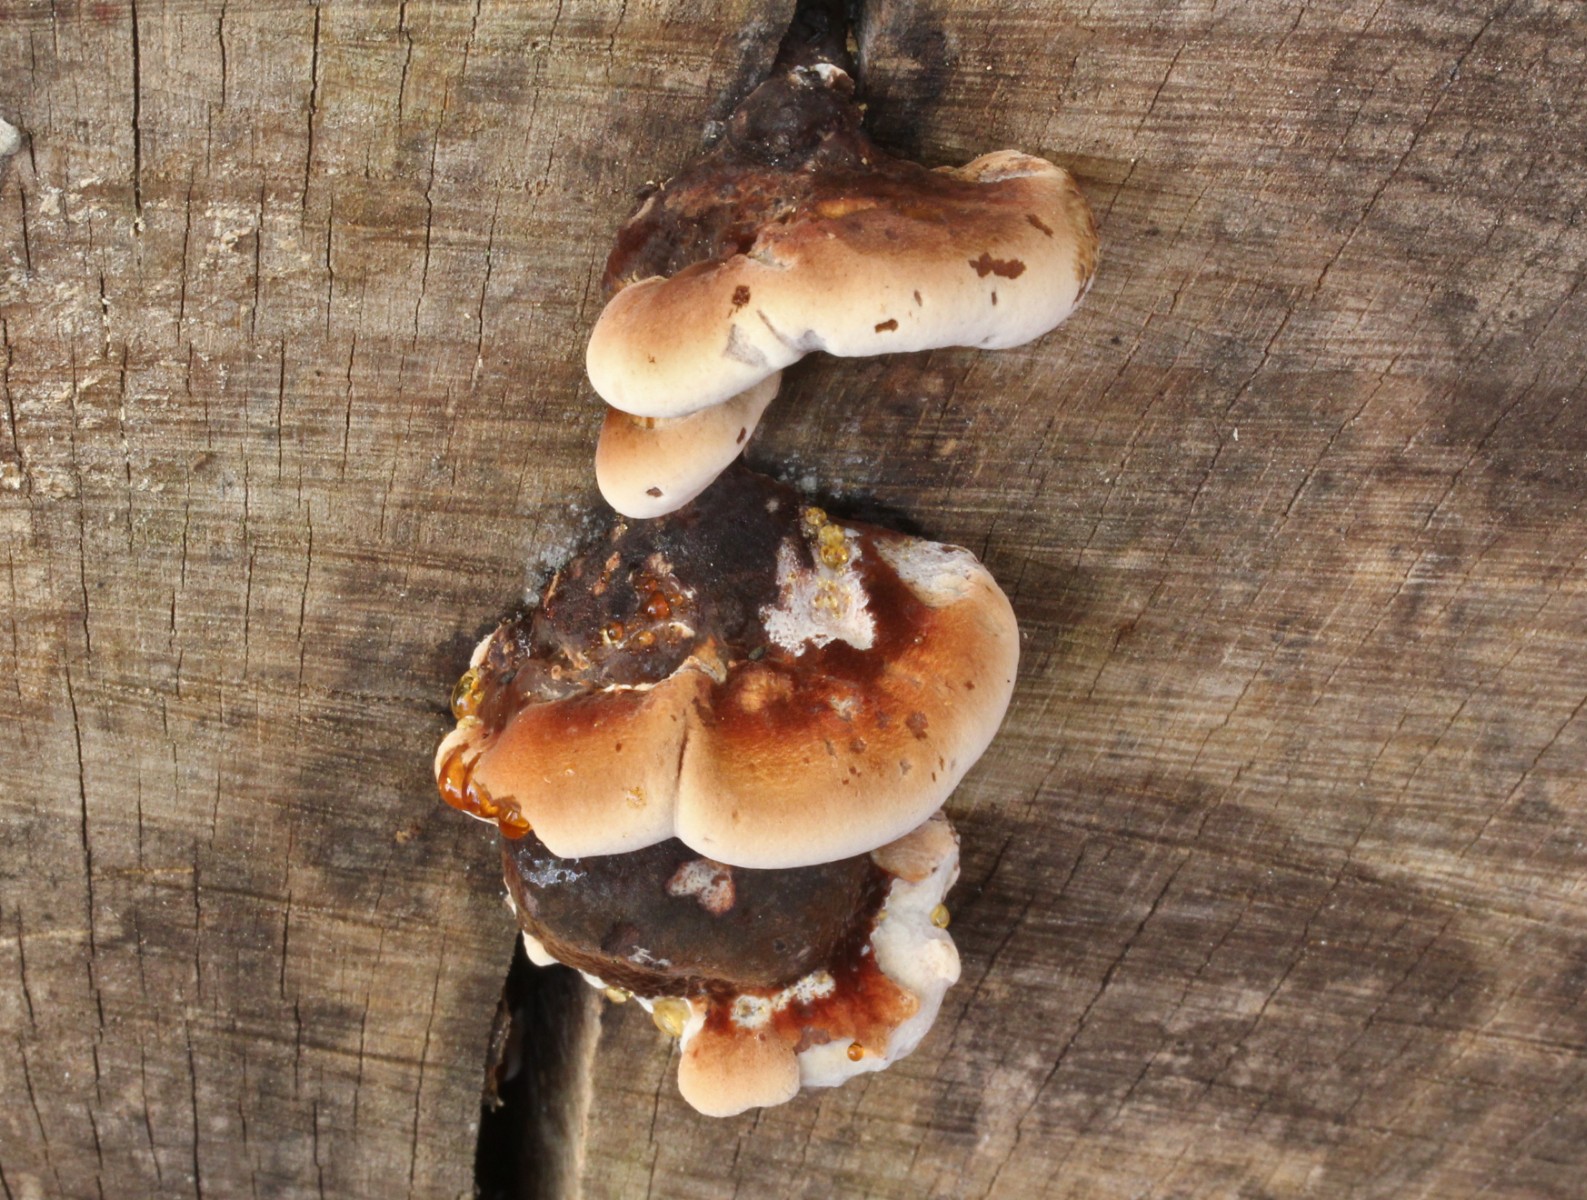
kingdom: Fungi
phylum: Basidiomycota
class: Agaricomycetes
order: Polyporales
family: Ischnodermataceae
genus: Ischnoderma
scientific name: Ischnoderma resinosum
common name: løv-tjæreporesvamp
